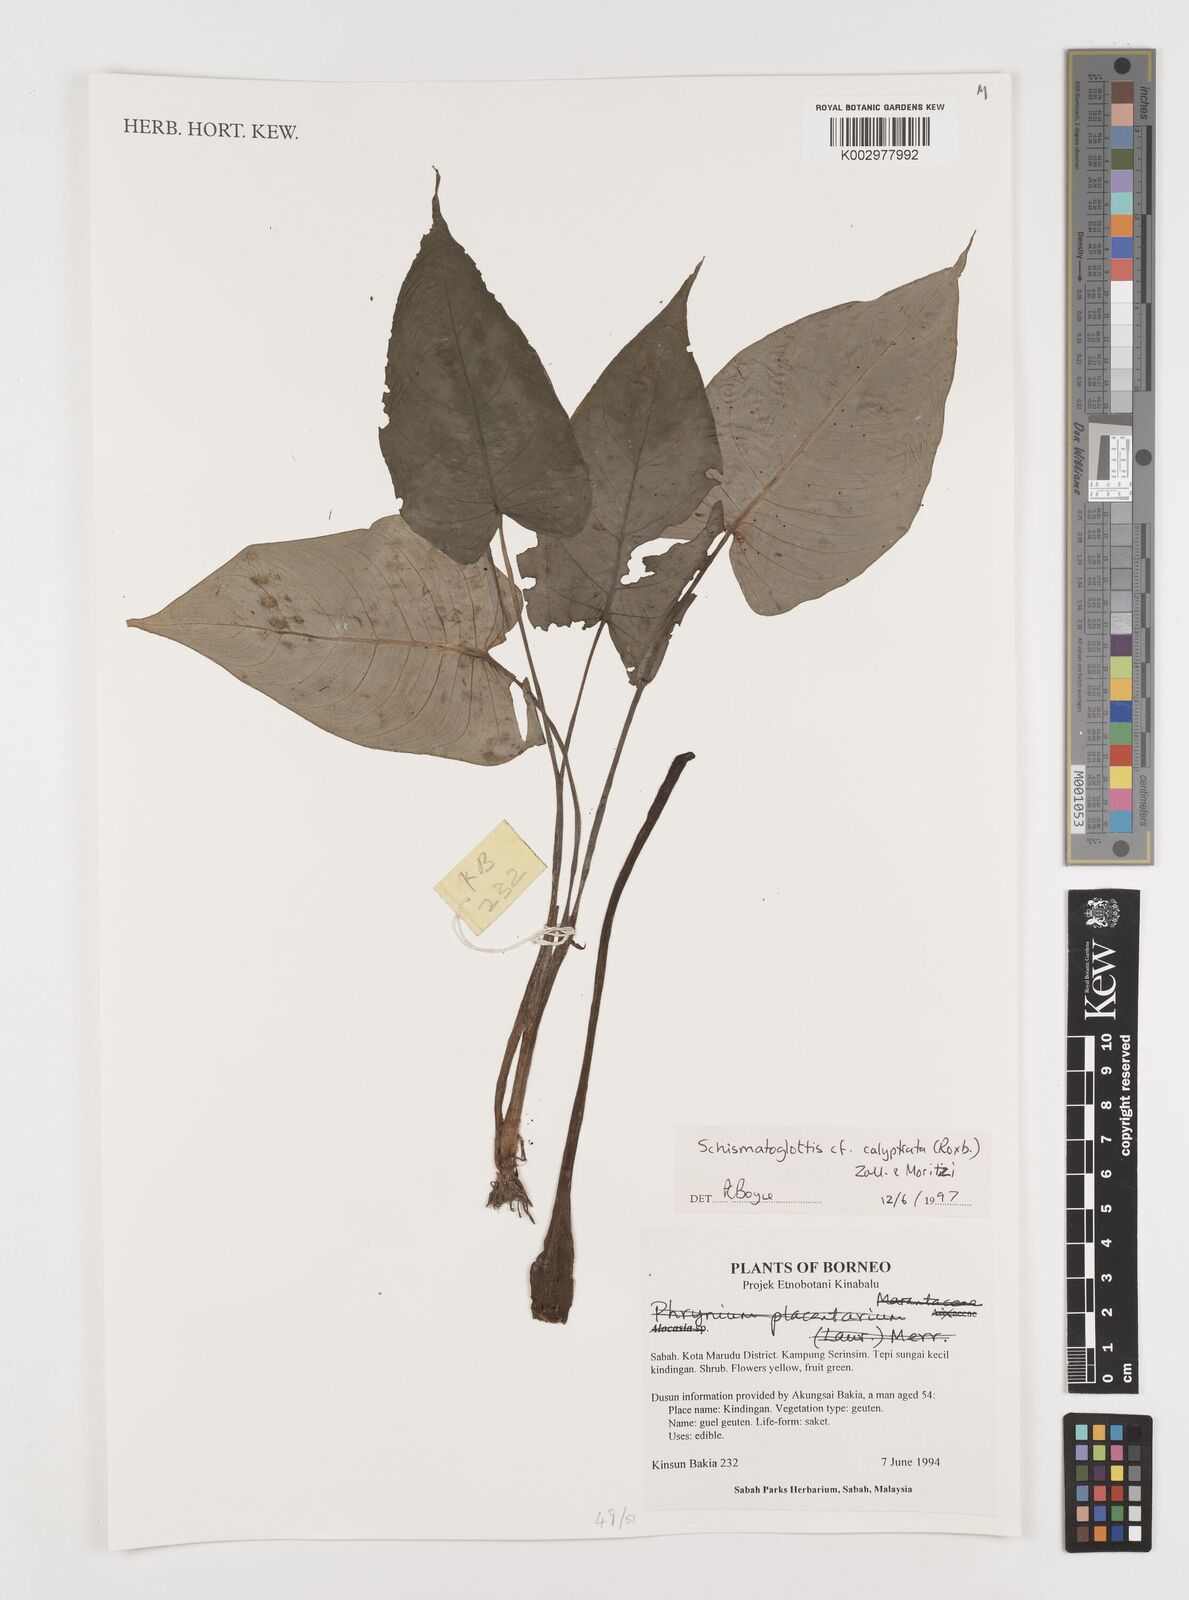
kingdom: Plantae
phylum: Tracheophyta
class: Liliopsida
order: Alismatales
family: Araceae
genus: Schismatoglottis
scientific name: Schismatoglottis calyptrata
